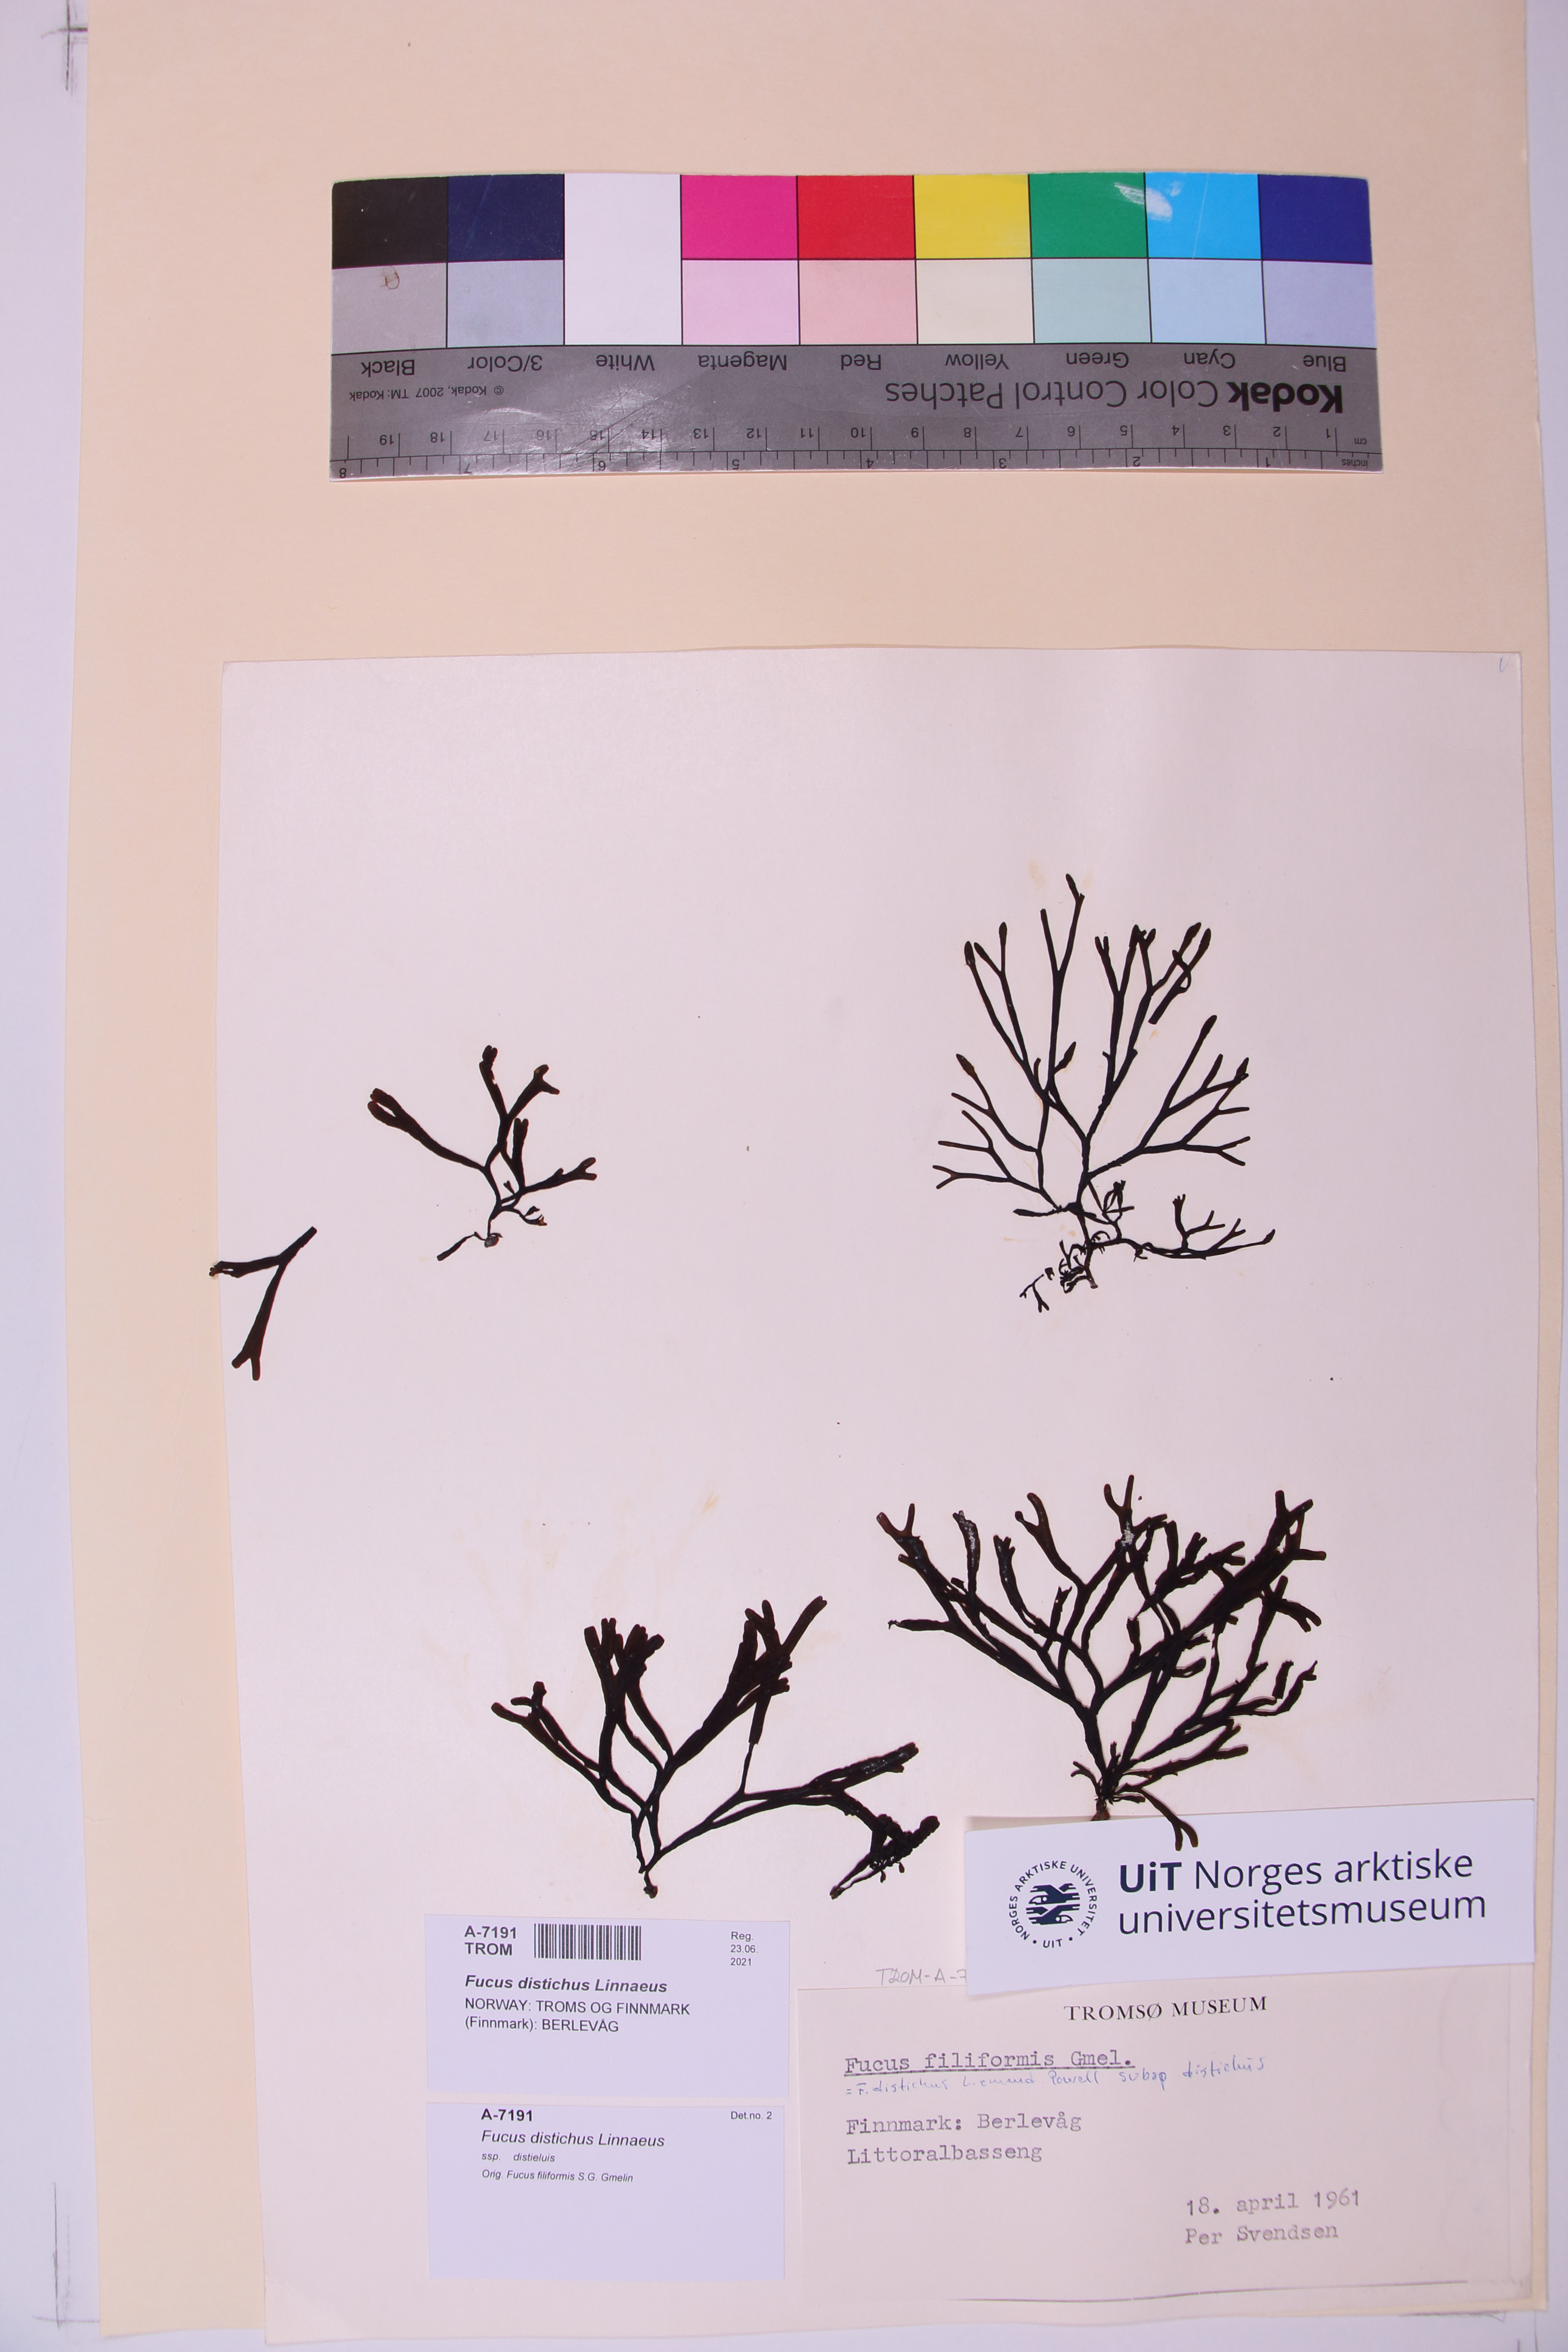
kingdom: Chromista
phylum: Ochrophyta
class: Phaeophyceae
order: Fucales
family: Fucaceae
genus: Fucus
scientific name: Fucus distichus
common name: Rockweed
